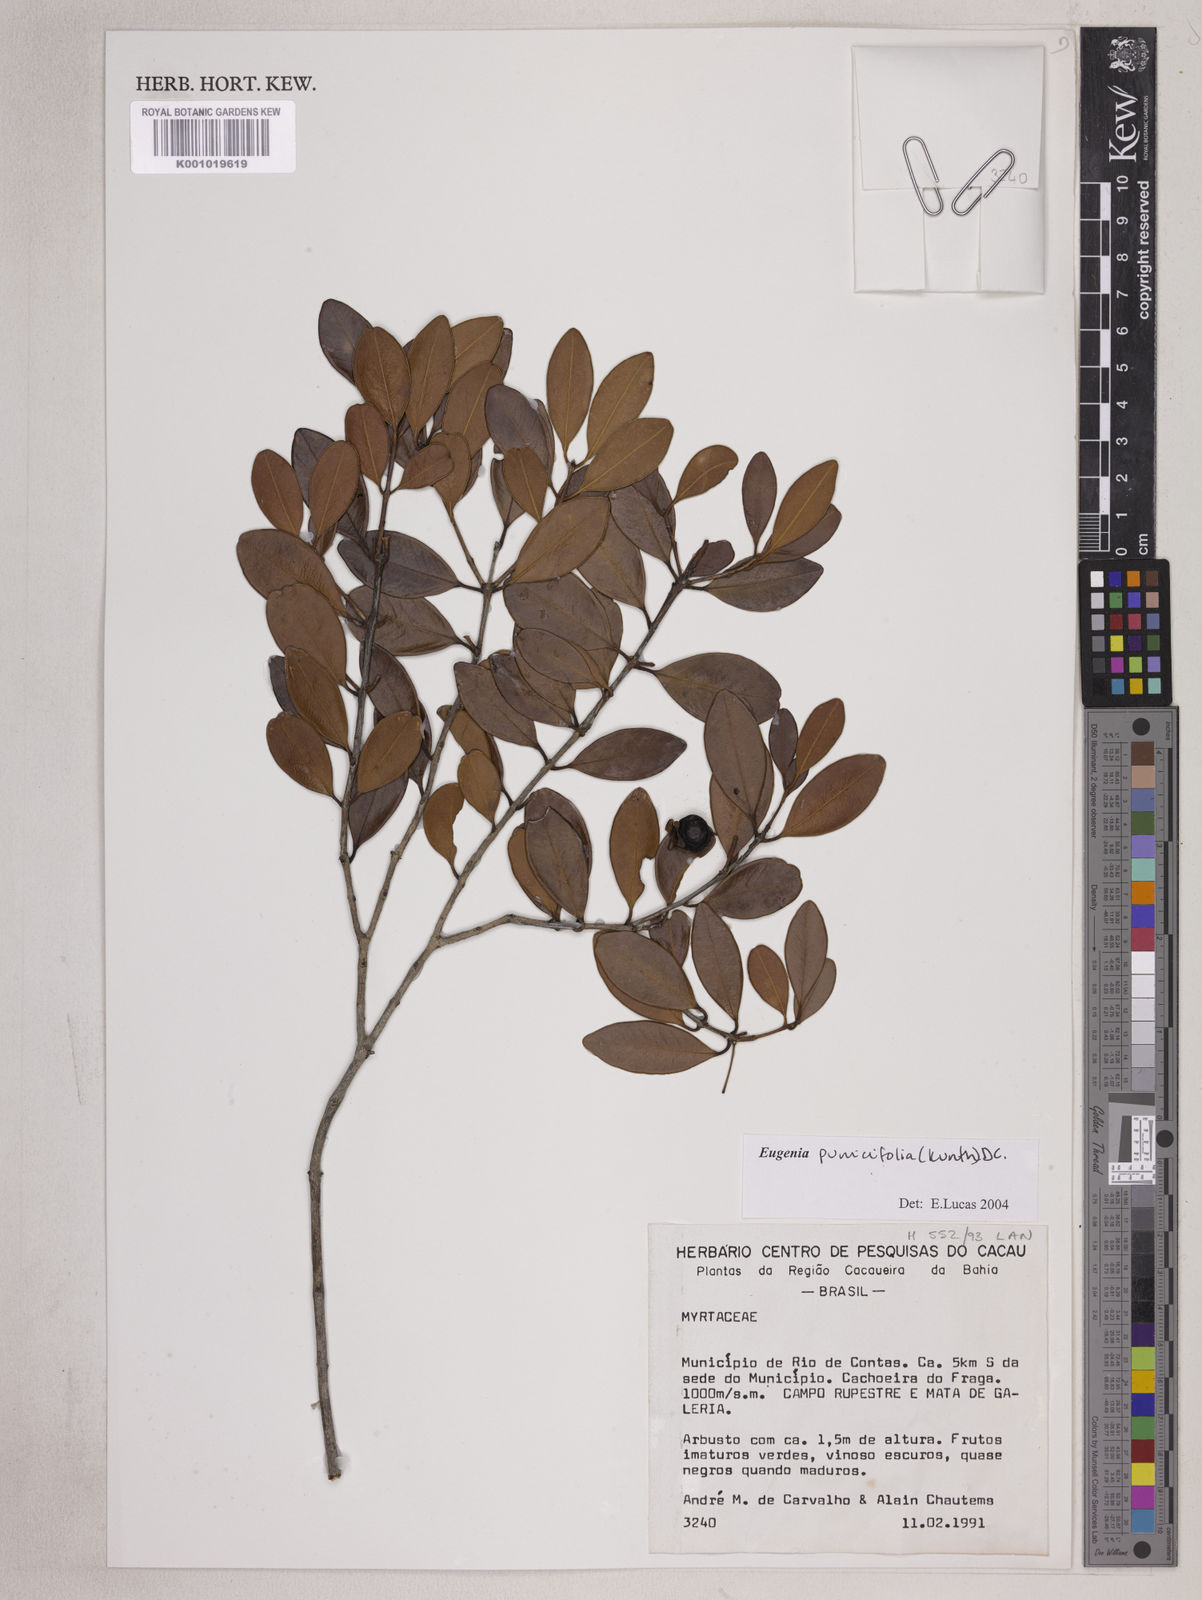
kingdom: Plantae
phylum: Tracheophyta
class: Magnoliopsida
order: Myrtales
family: Myrtaceae
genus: Eugenia
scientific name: Eugenia punicifolia
